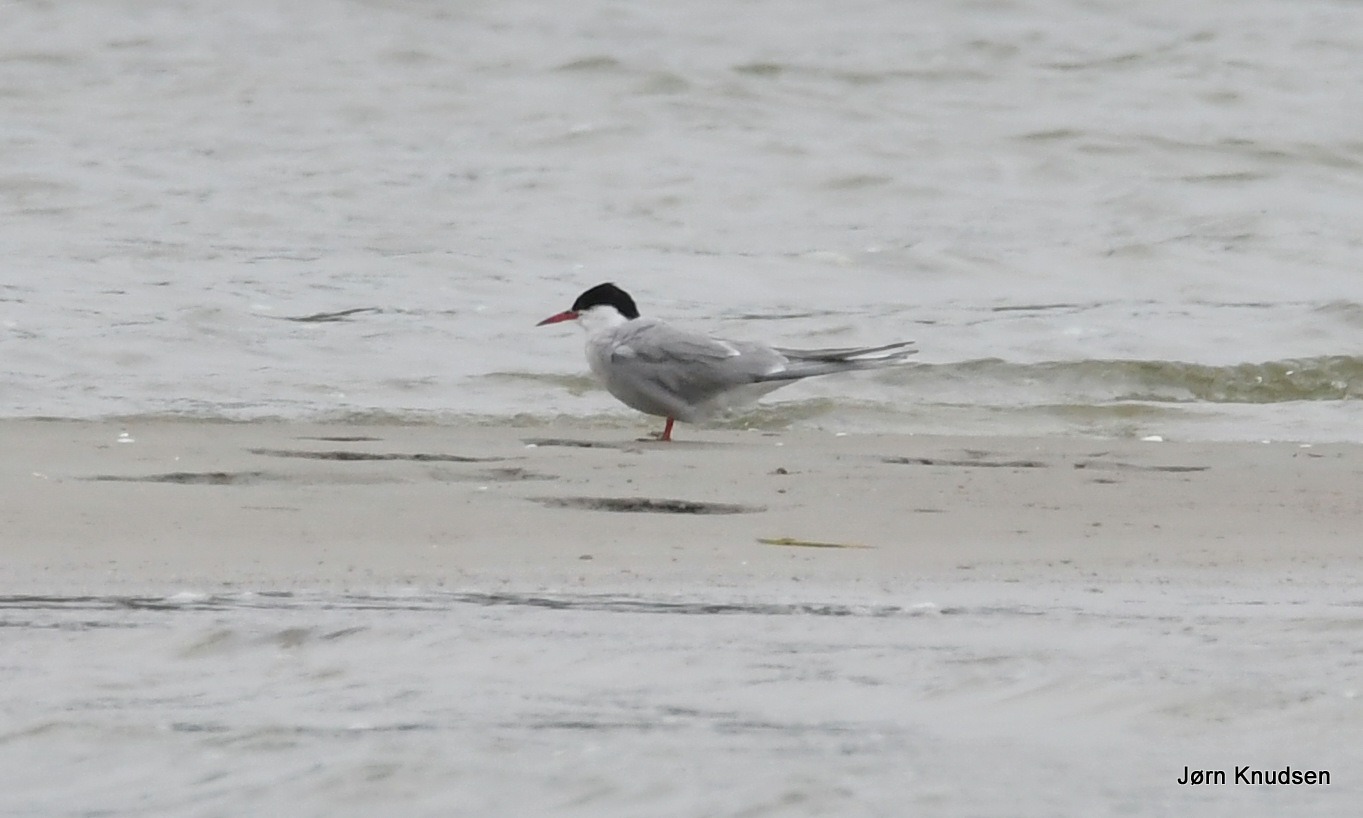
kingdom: Animalia
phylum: Chordata
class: Aves
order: Charadriiformes
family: Laridae
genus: Sterna
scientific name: Sterna hirundo
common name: Fjordterne
